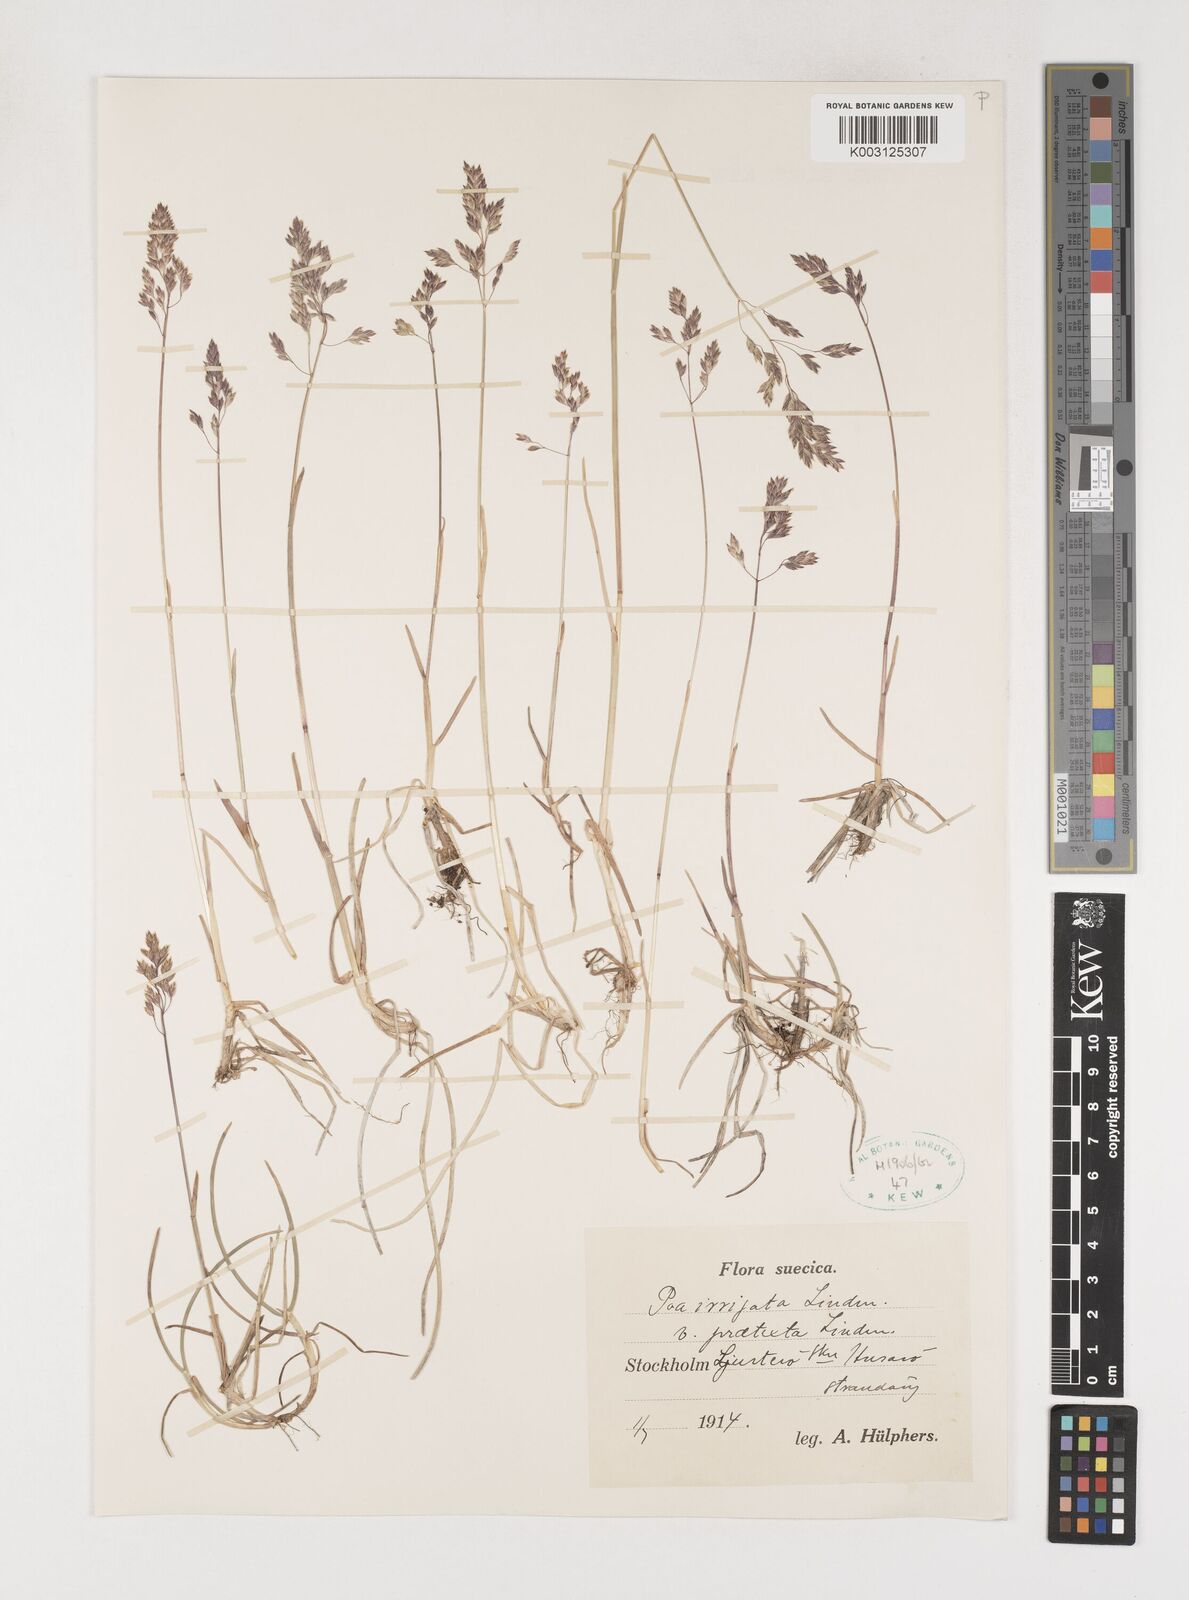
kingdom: Plantae
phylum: Tracheophyta
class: Liliopsida
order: Poales
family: Poaceae
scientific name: Poaceae
